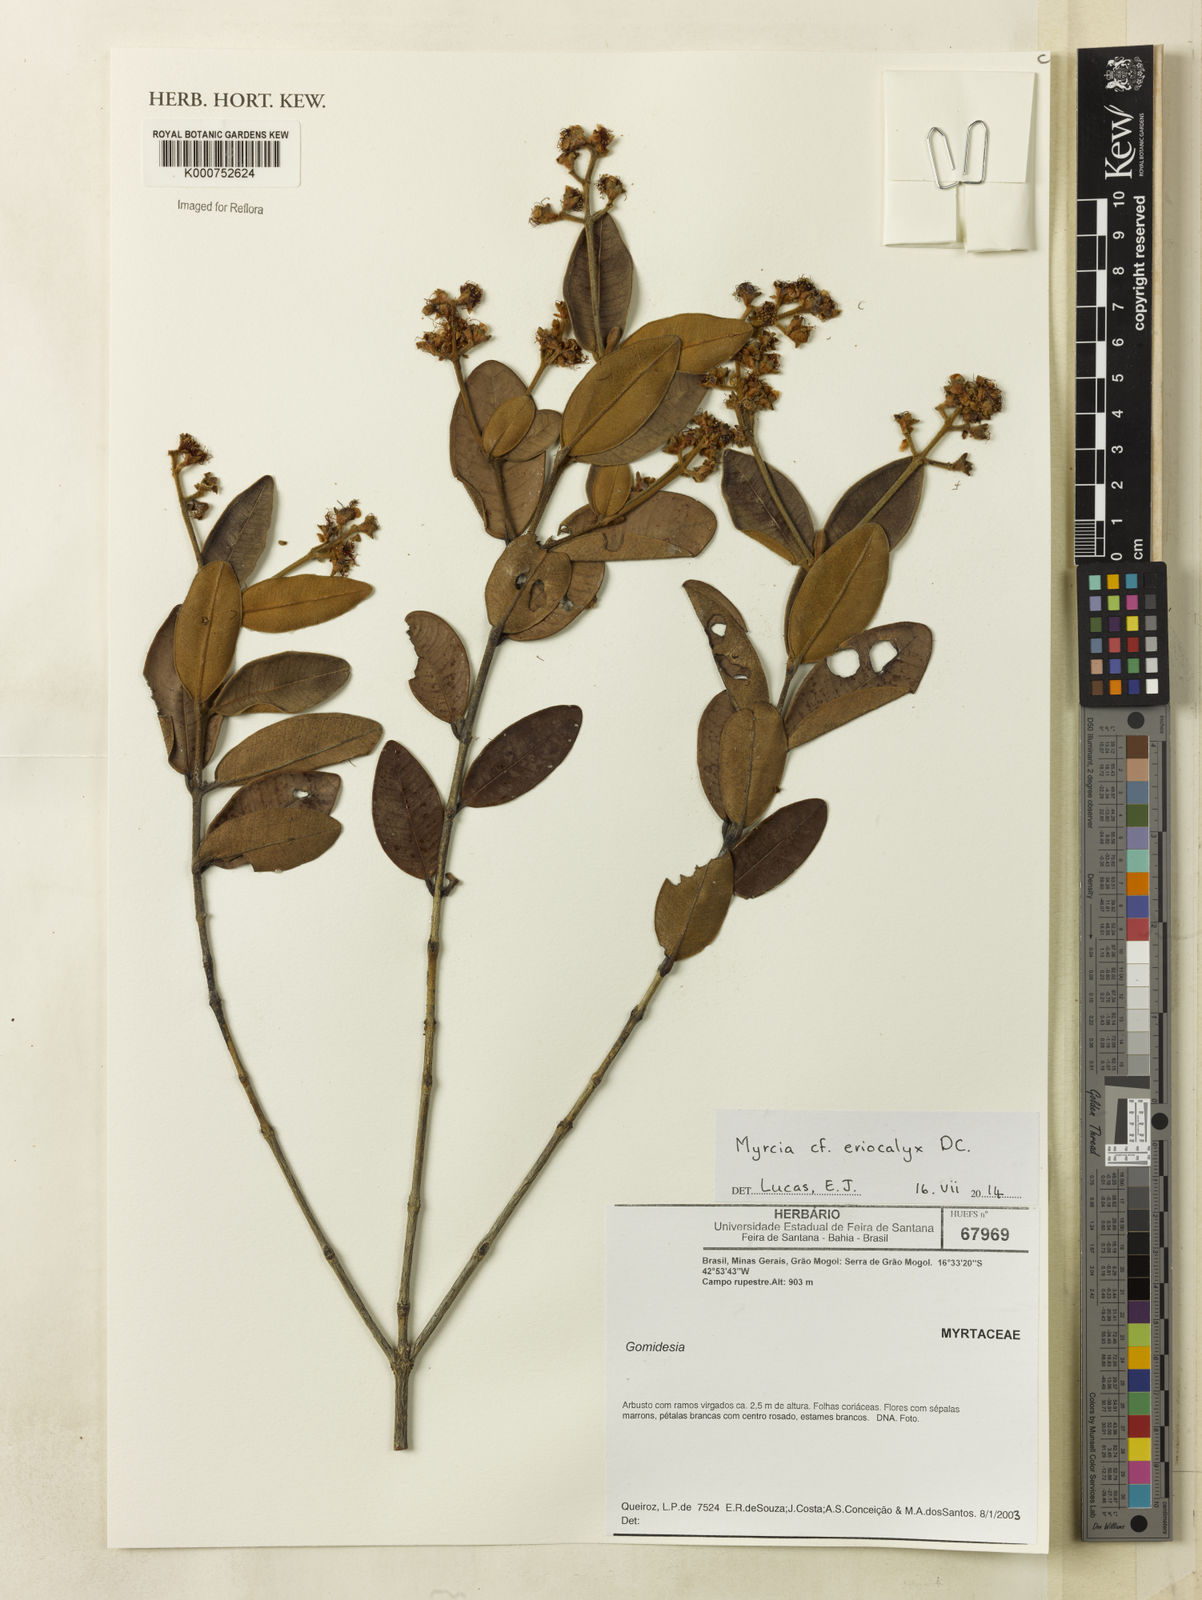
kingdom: Plantae
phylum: Tracheophyta
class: Magnoliopsida
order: Myrtales
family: Myrtaceae
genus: Myrcia
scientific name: Myrcia eriocalyx
